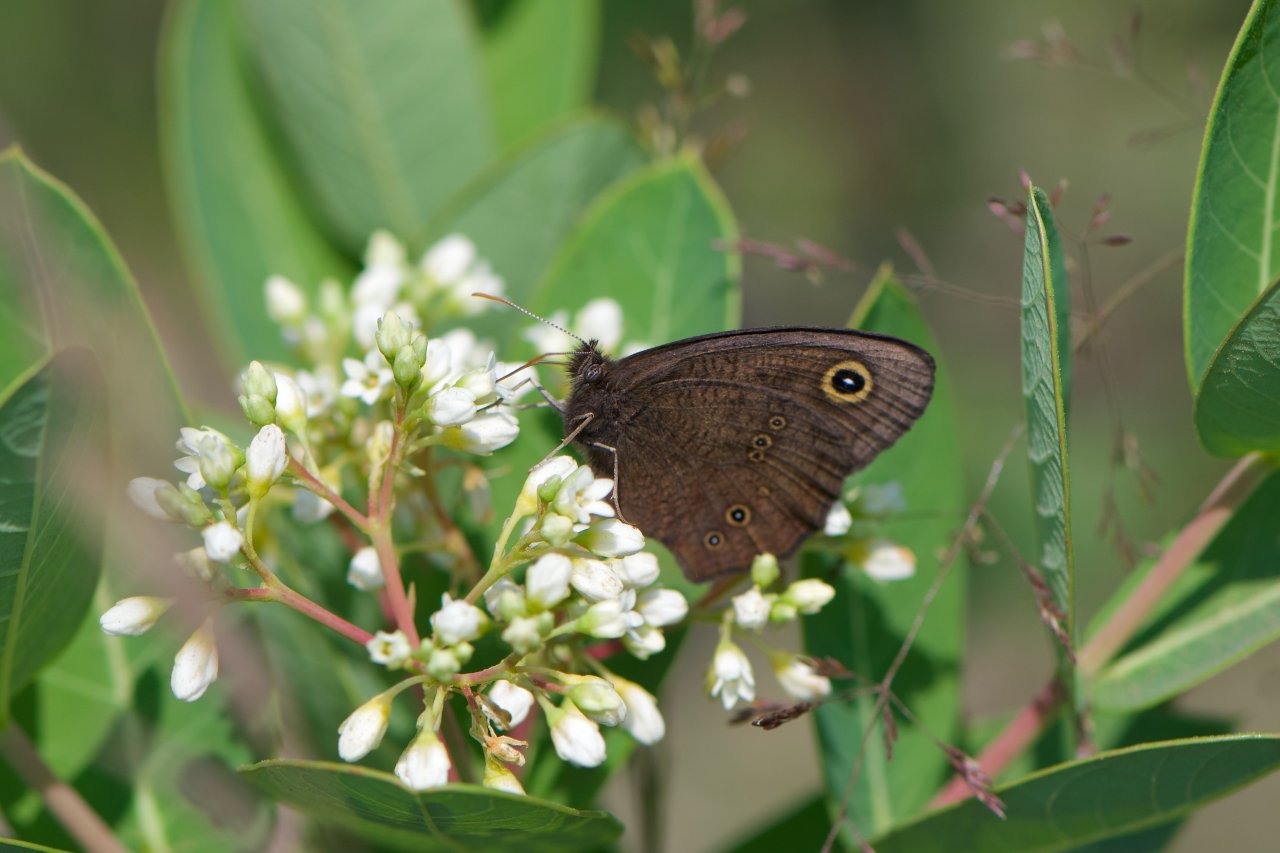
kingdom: Animalia
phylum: Arthropoda
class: Insecta
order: Lepidoptera
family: Nymphalidae
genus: Cercyonis
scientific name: Cercyonis pegala
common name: Common Wood-Nymph
